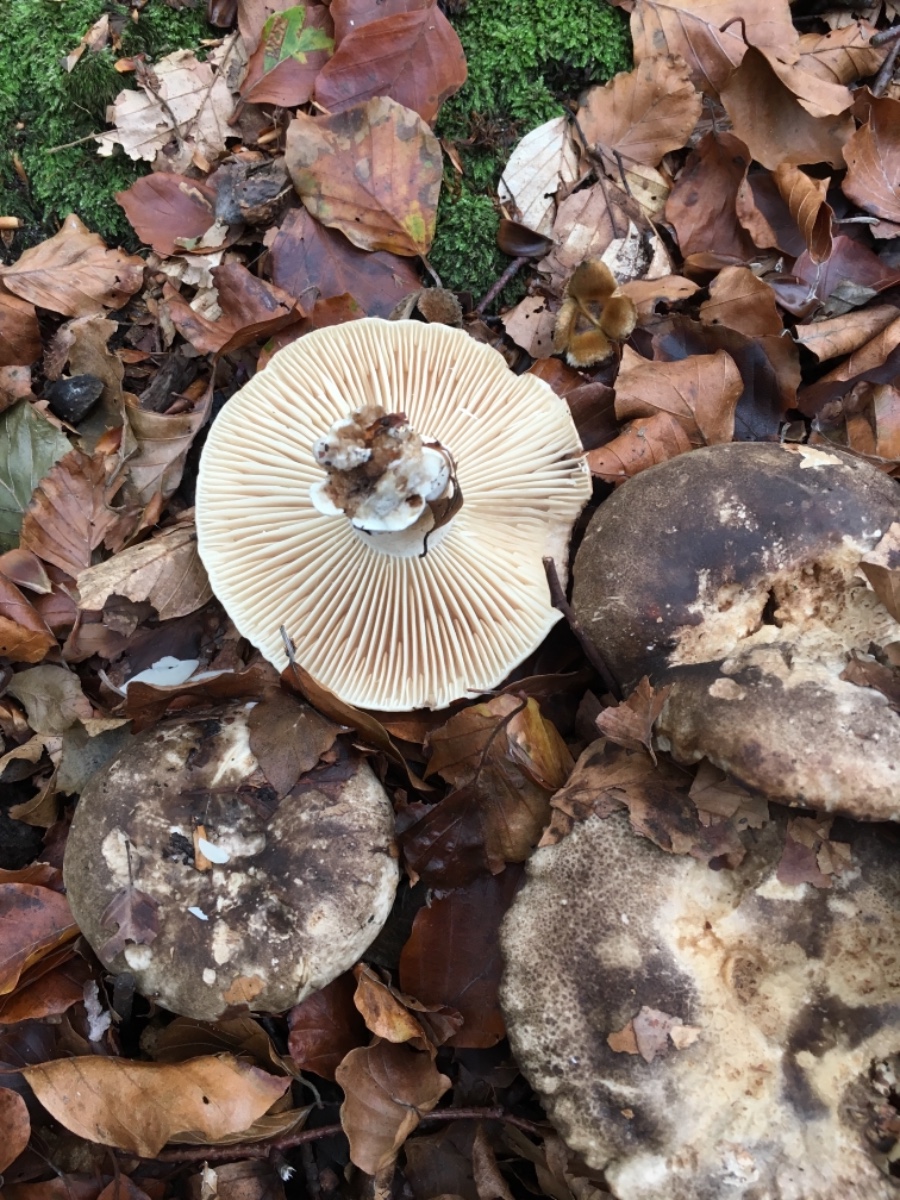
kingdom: Fungi
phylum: Basidiomycota
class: Agaricomycetes
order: Russulales
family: Russulaceae
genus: Russula
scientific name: Russula adusta
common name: sværtende skørhat
